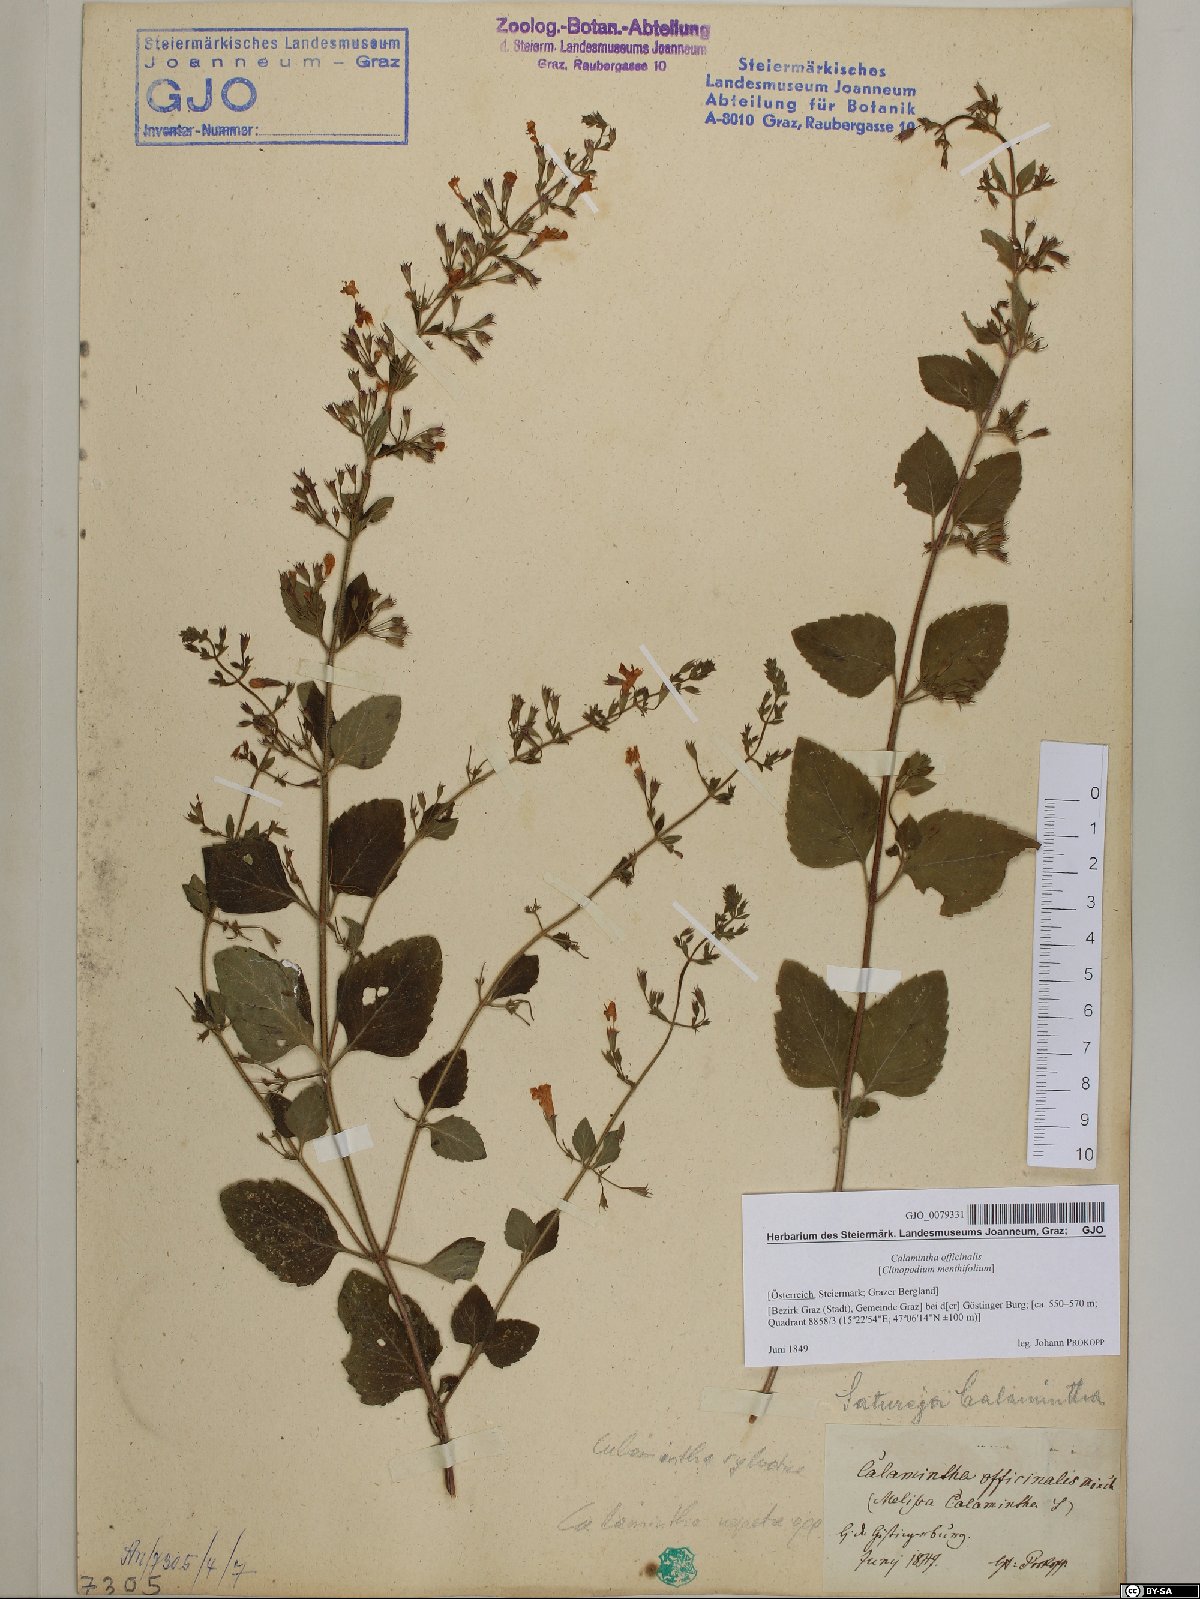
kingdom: Plantae
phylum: Tracheophyta
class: Magnoliopsida
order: Lamiales
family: Lamiaceae
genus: Clinopodium
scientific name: Clinopodium nepeta
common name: Lesser calamint
